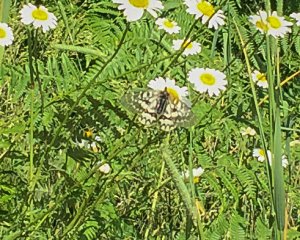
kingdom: Animalia
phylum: Arthropoda
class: Insecta
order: Lepidoptera
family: Papilionidae
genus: Parnassius
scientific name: Parnassius clodius
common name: Clodius Parnassian
